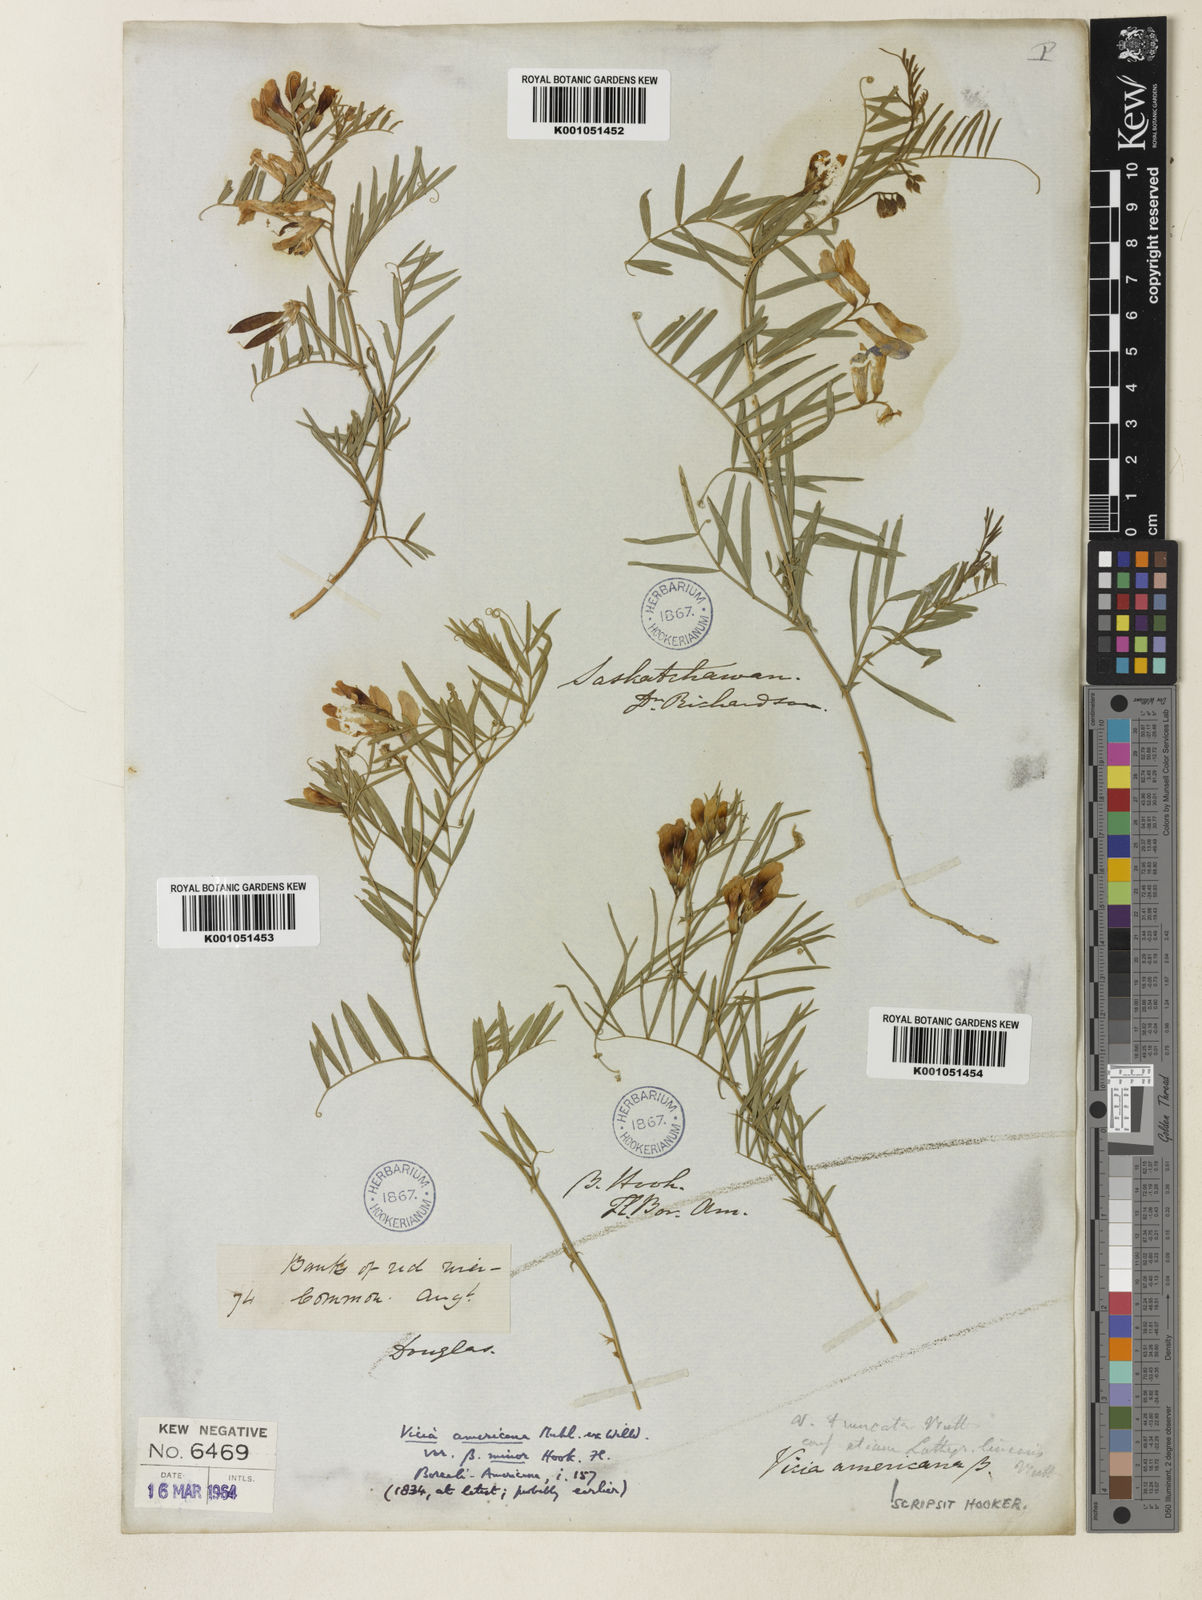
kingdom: Plantae
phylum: Tracheophyta
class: Magnoliopsida
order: Fabales
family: Fabaceae
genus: Vicia
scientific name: Vicia americana
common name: American vetch
